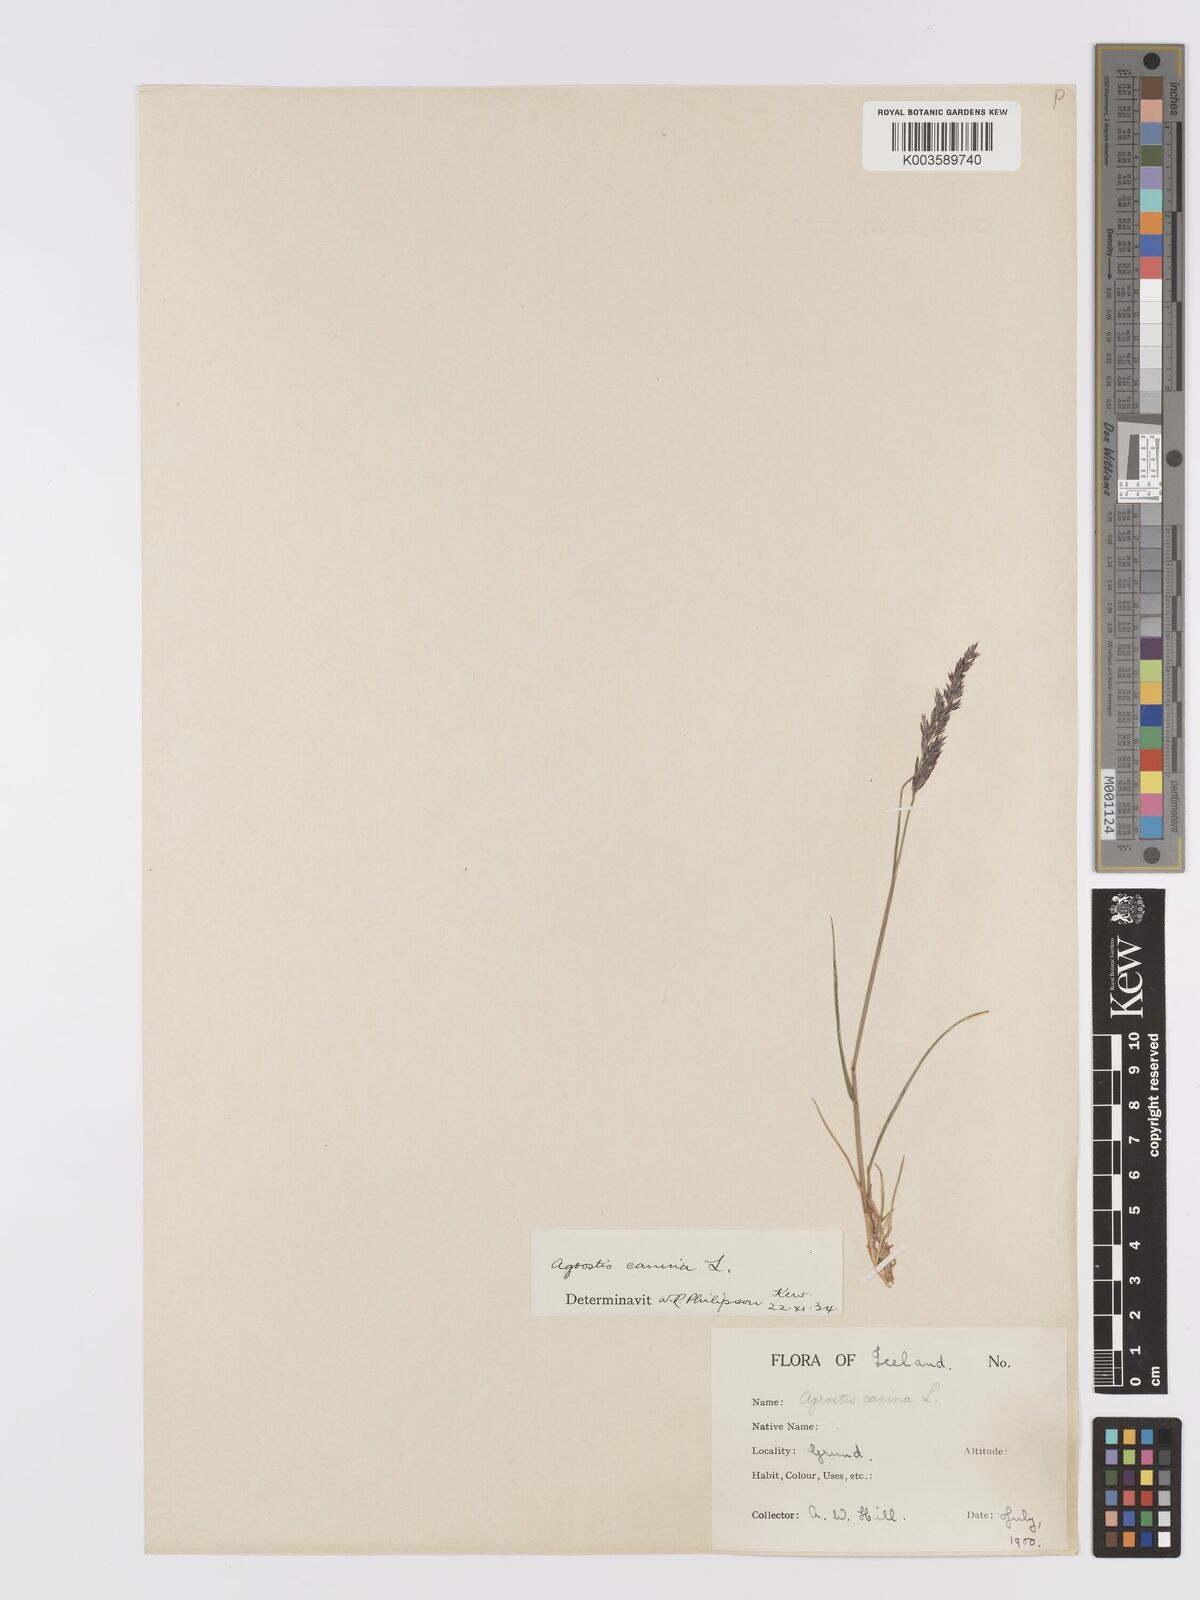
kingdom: Plantae
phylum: Tracheophyta
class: Liliopsida
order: Poales
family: Poaceae
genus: Agrostis
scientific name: Agrostis
